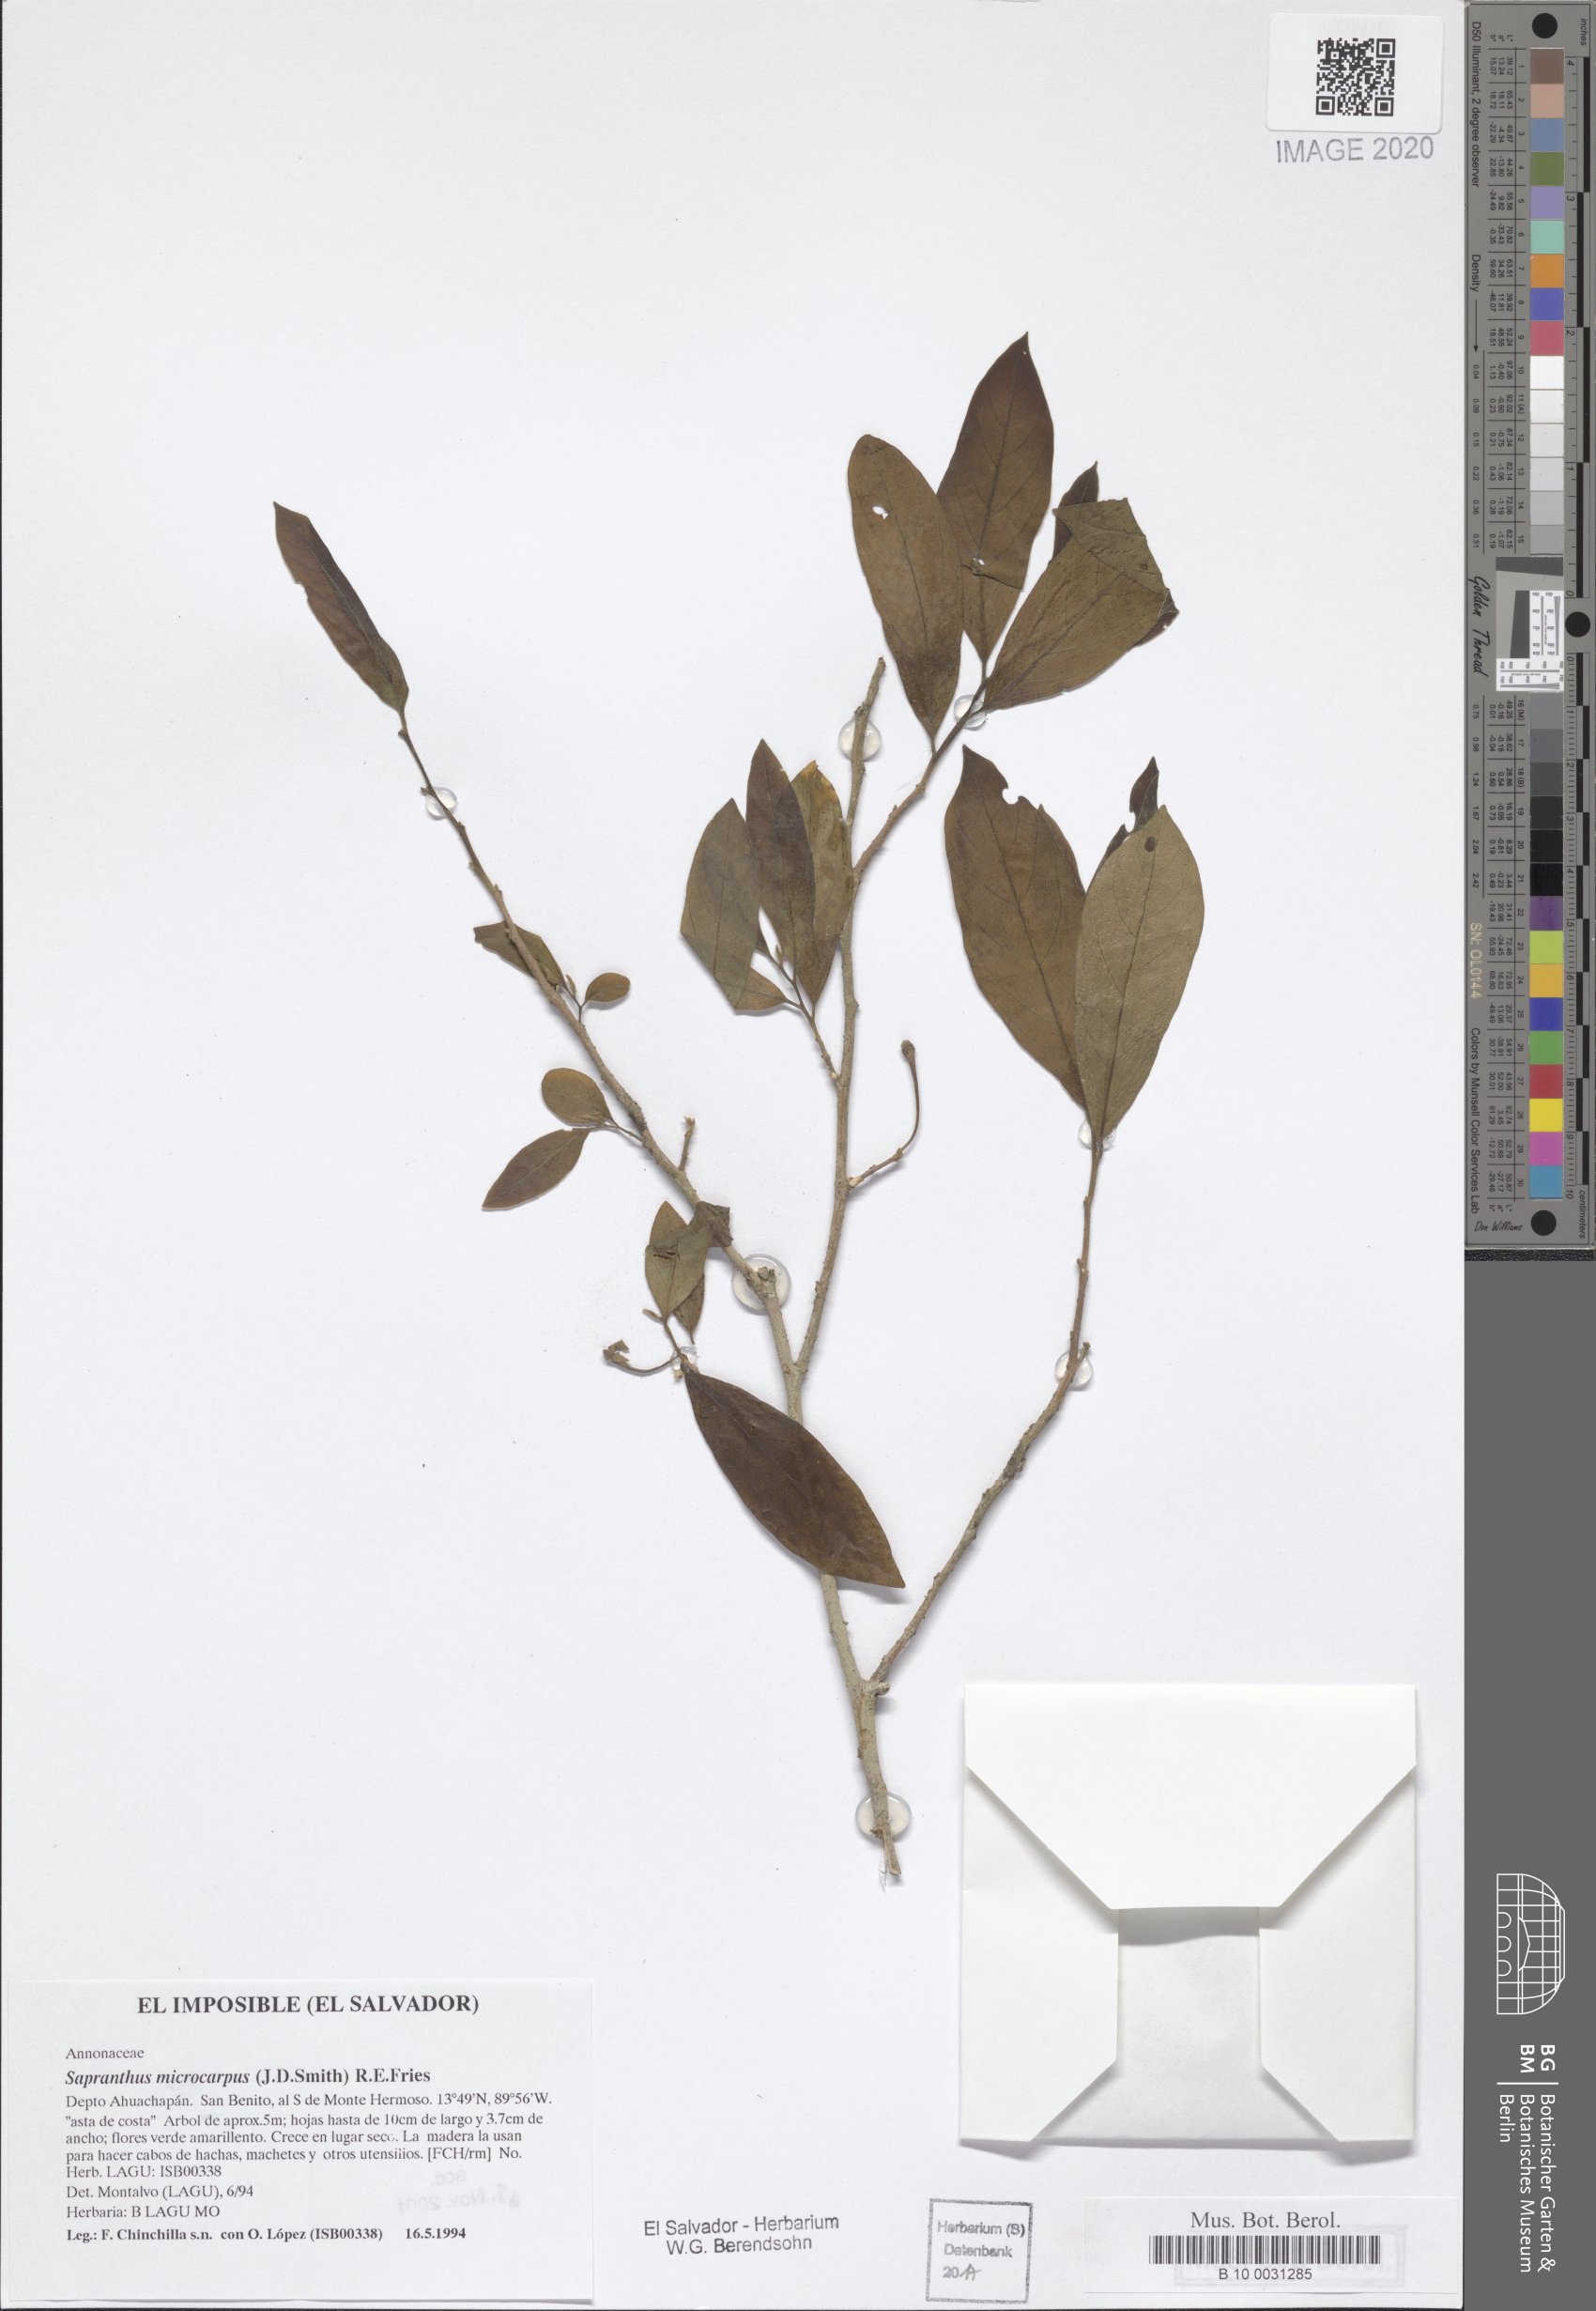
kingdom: Plantae
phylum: Tracheophyta
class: Magnoliopsida
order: Magnoliales
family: Annonaceae
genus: Sapranthus
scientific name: Sapranthus microcarpus
